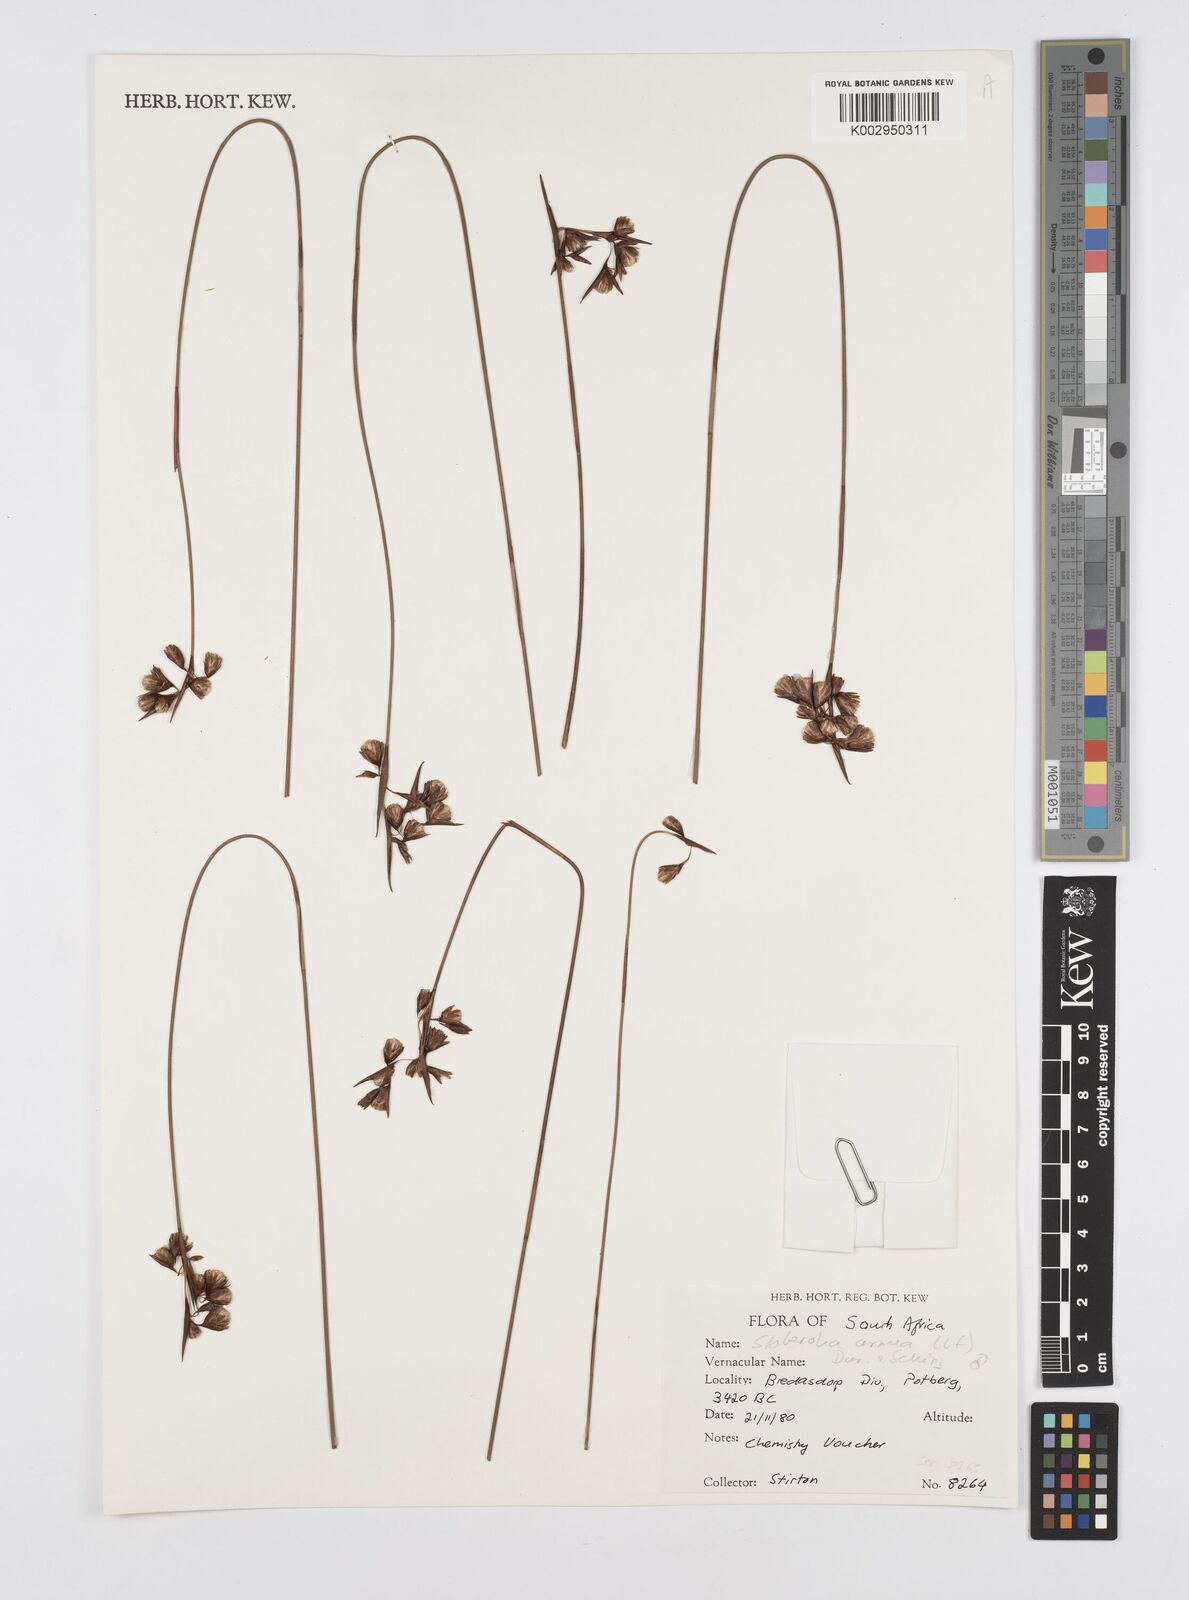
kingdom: Plantae
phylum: Tracheophyta
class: Liliopsida
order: Poales
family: Restionaceae
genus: Staberoha
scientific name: Staberoha cernua
